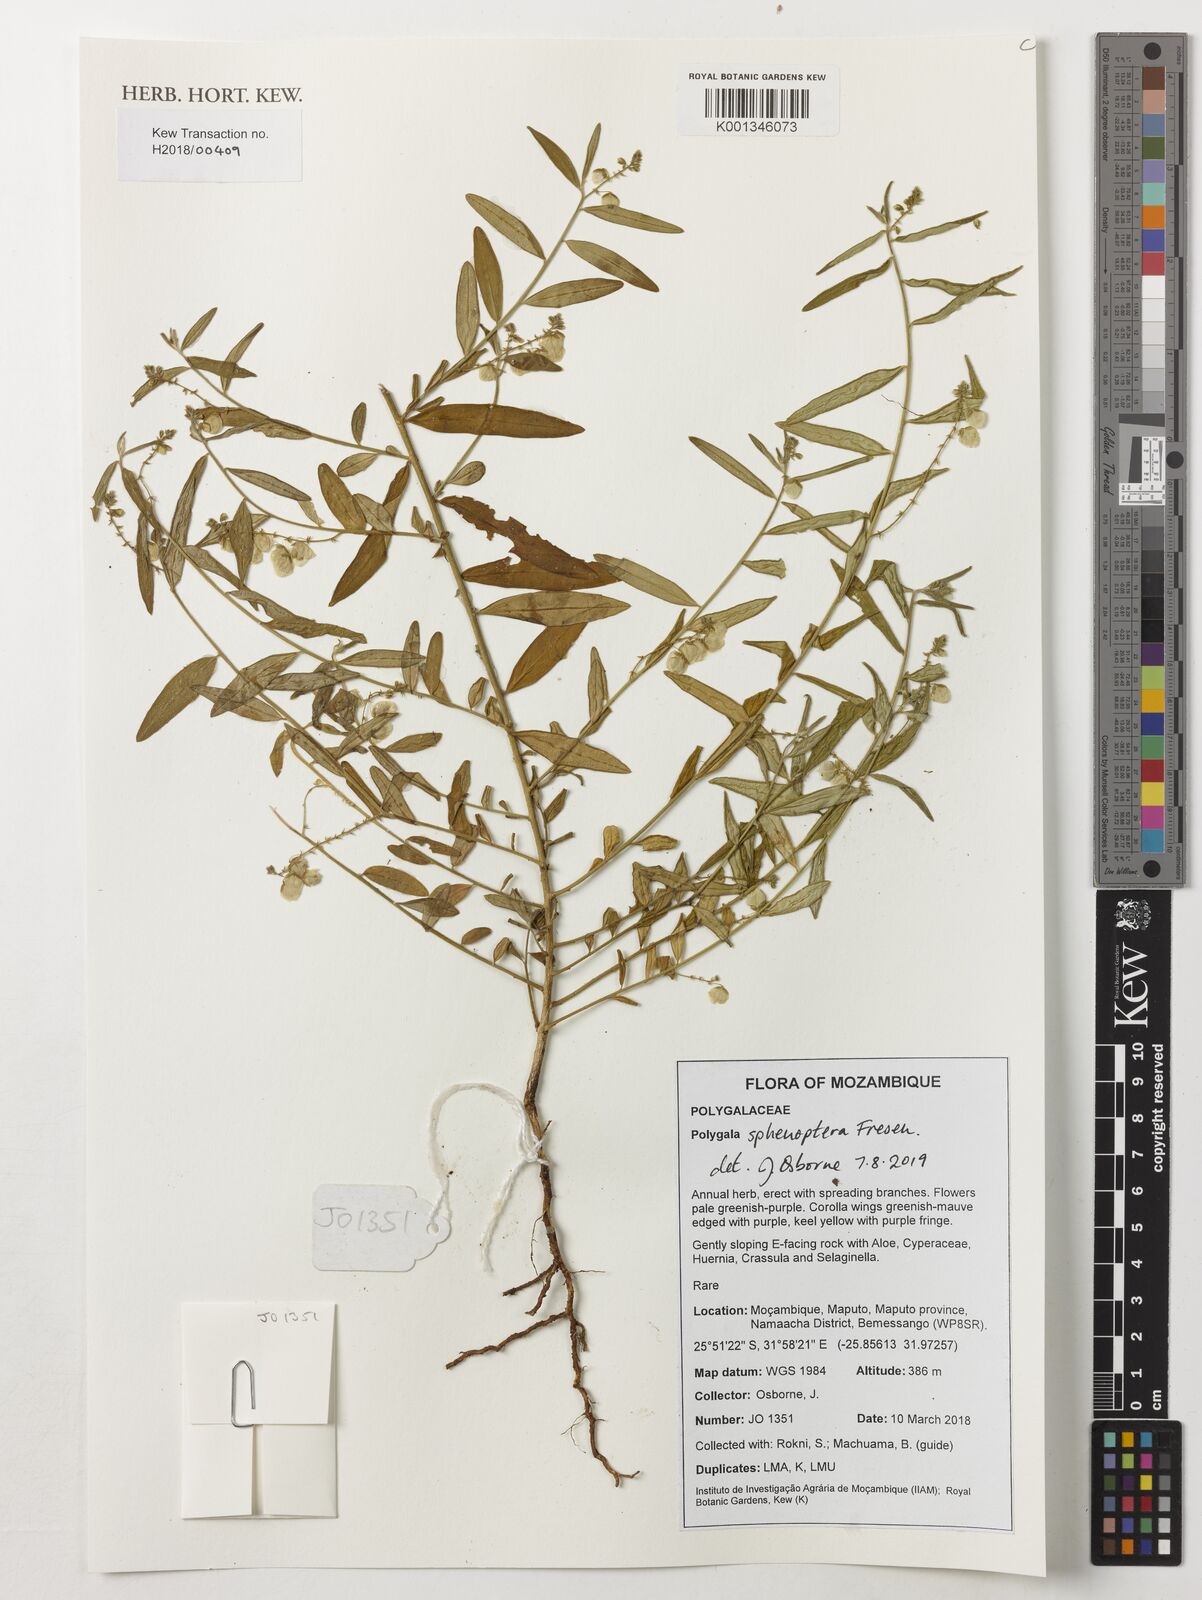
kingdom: Plantae
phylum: Tracheophyta
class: Magnoliopsida
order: Fabales
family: Polygalaceae
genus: Polygala
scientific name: Polygala sphenoptera
